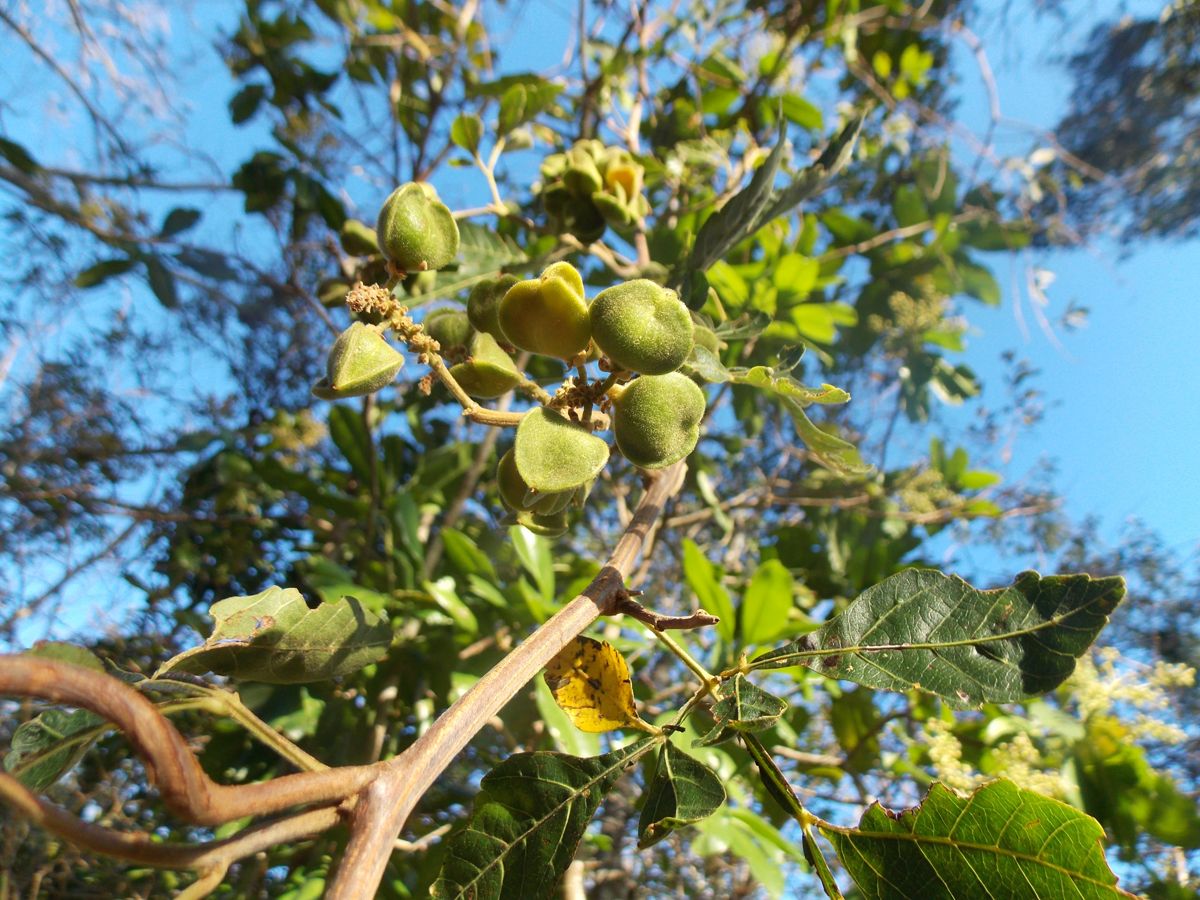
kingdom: Plantae
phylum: Tracheophyta
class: Magnoliopsida
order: Sapindales
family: Sapindaceae
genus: Paullinia
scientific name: Paullinia fuscescens
